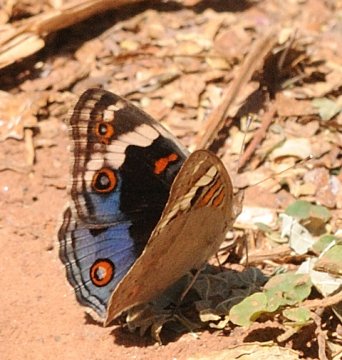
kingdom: Animalia
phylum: Arthropoda
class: Insecta
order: Lepidoptera
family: Nymphalidae
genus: Junonia
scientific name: Junonia orithya
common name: Blue Argus
